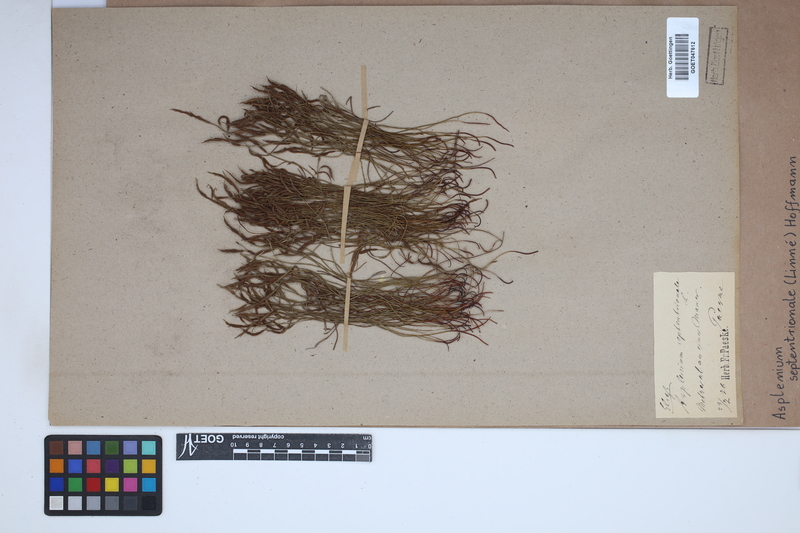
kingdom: Plantae
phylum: Tracheophyta
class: Polypodiopsida
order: Polypodiales
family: Aspleniaceae
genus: Asplenium
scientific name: Asplenium septentrionale
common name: Forked spleenwort
